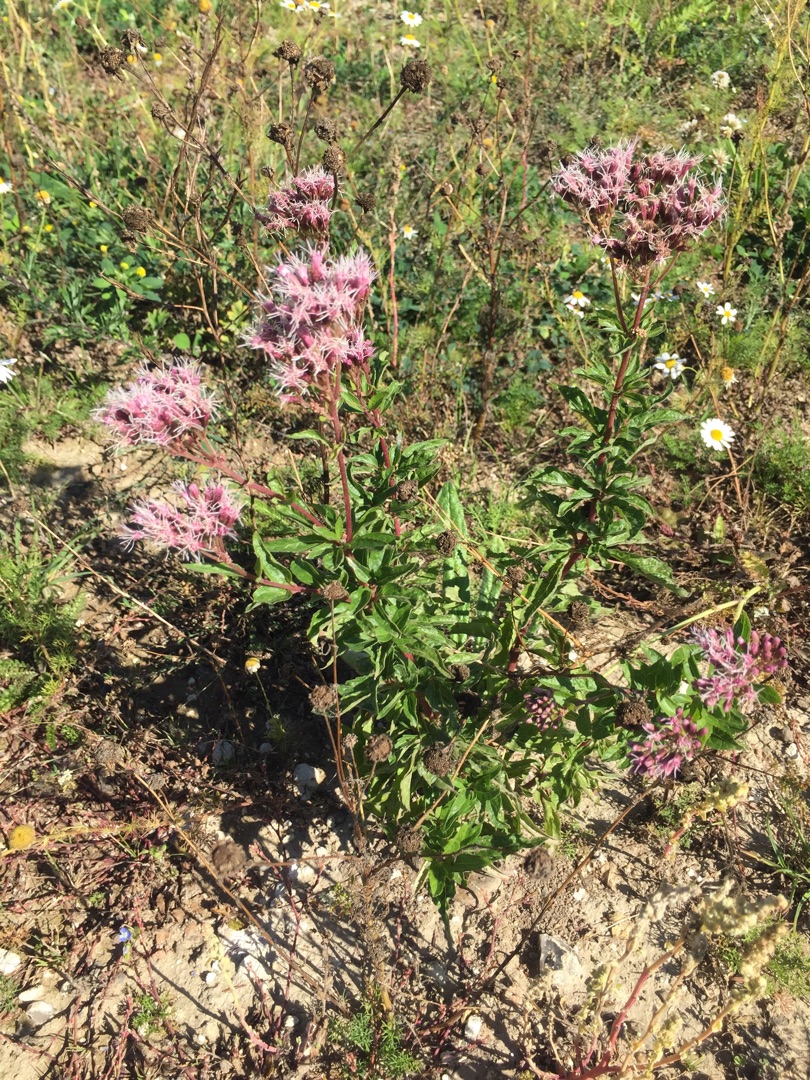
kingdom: Plantae
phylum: Tracheophyta
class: Magnoliopsida
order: Asterales
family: Asteraceae
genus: Eupatorium
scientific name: Eupatorium cannabinum
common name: Hjortetrøst
